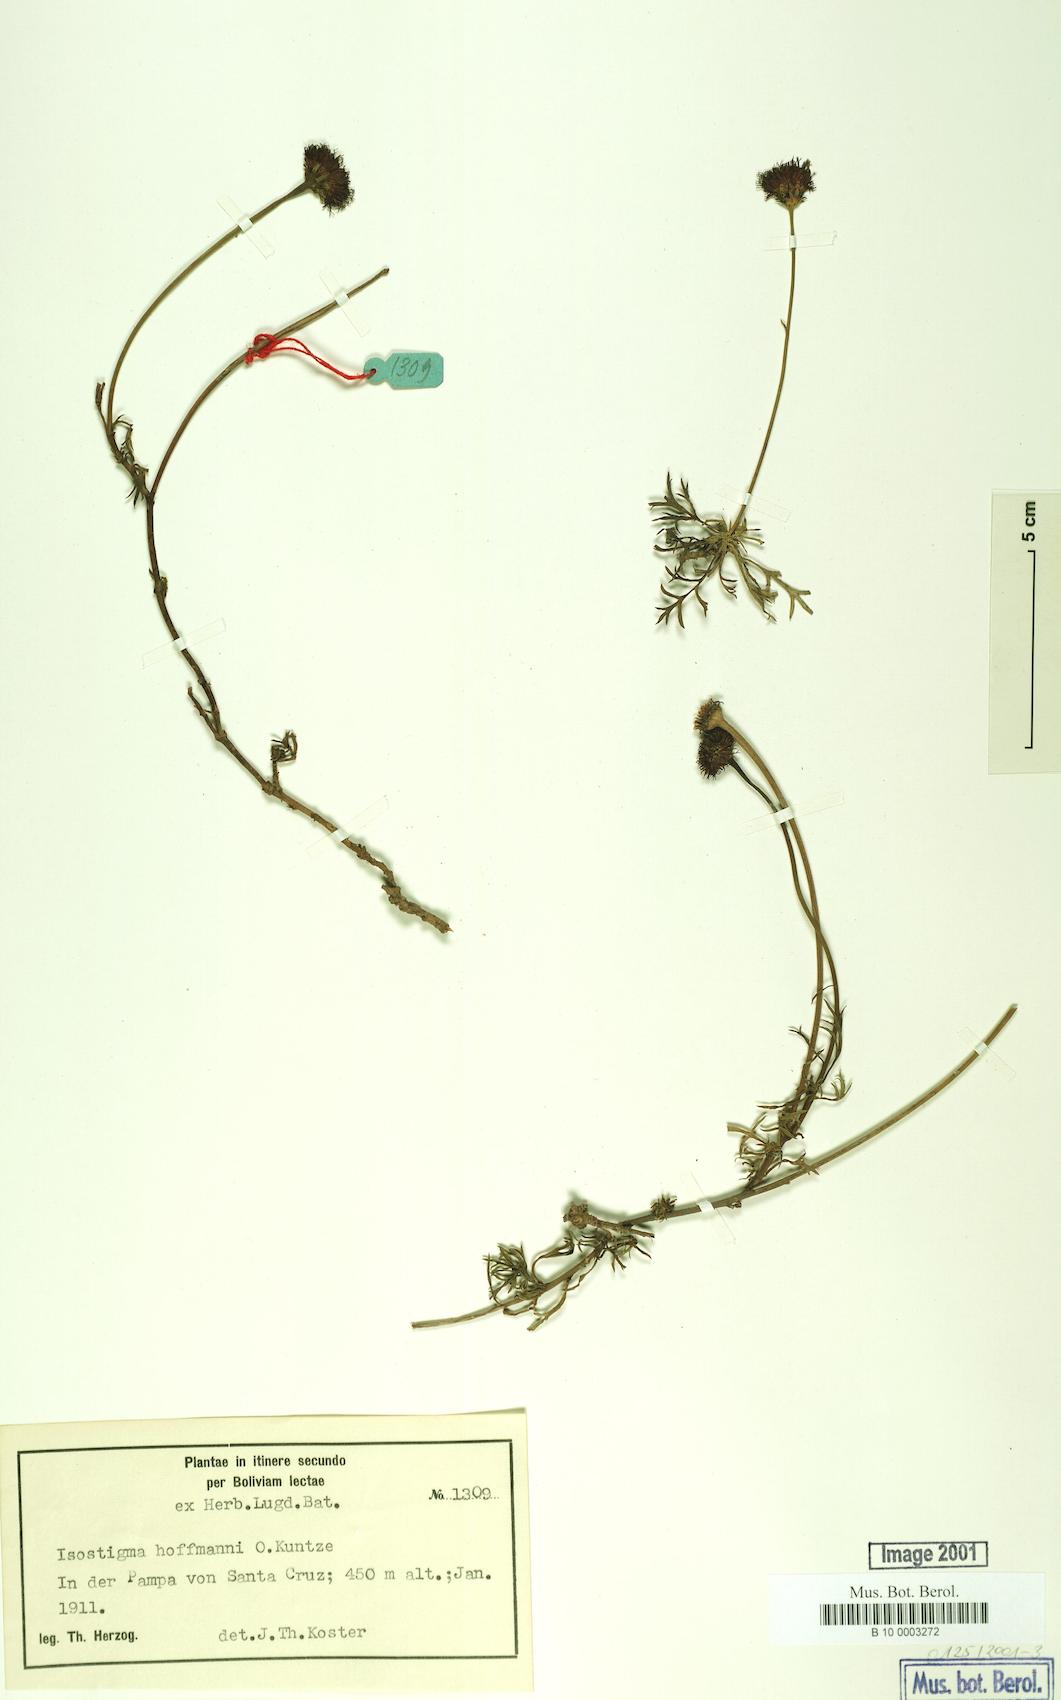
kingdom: Plantae
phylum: Tracheophyta
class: Magnoliopsida
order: Asterales
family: Asteraceae
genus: Isostigma
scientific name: Isostigma hoffmannii
